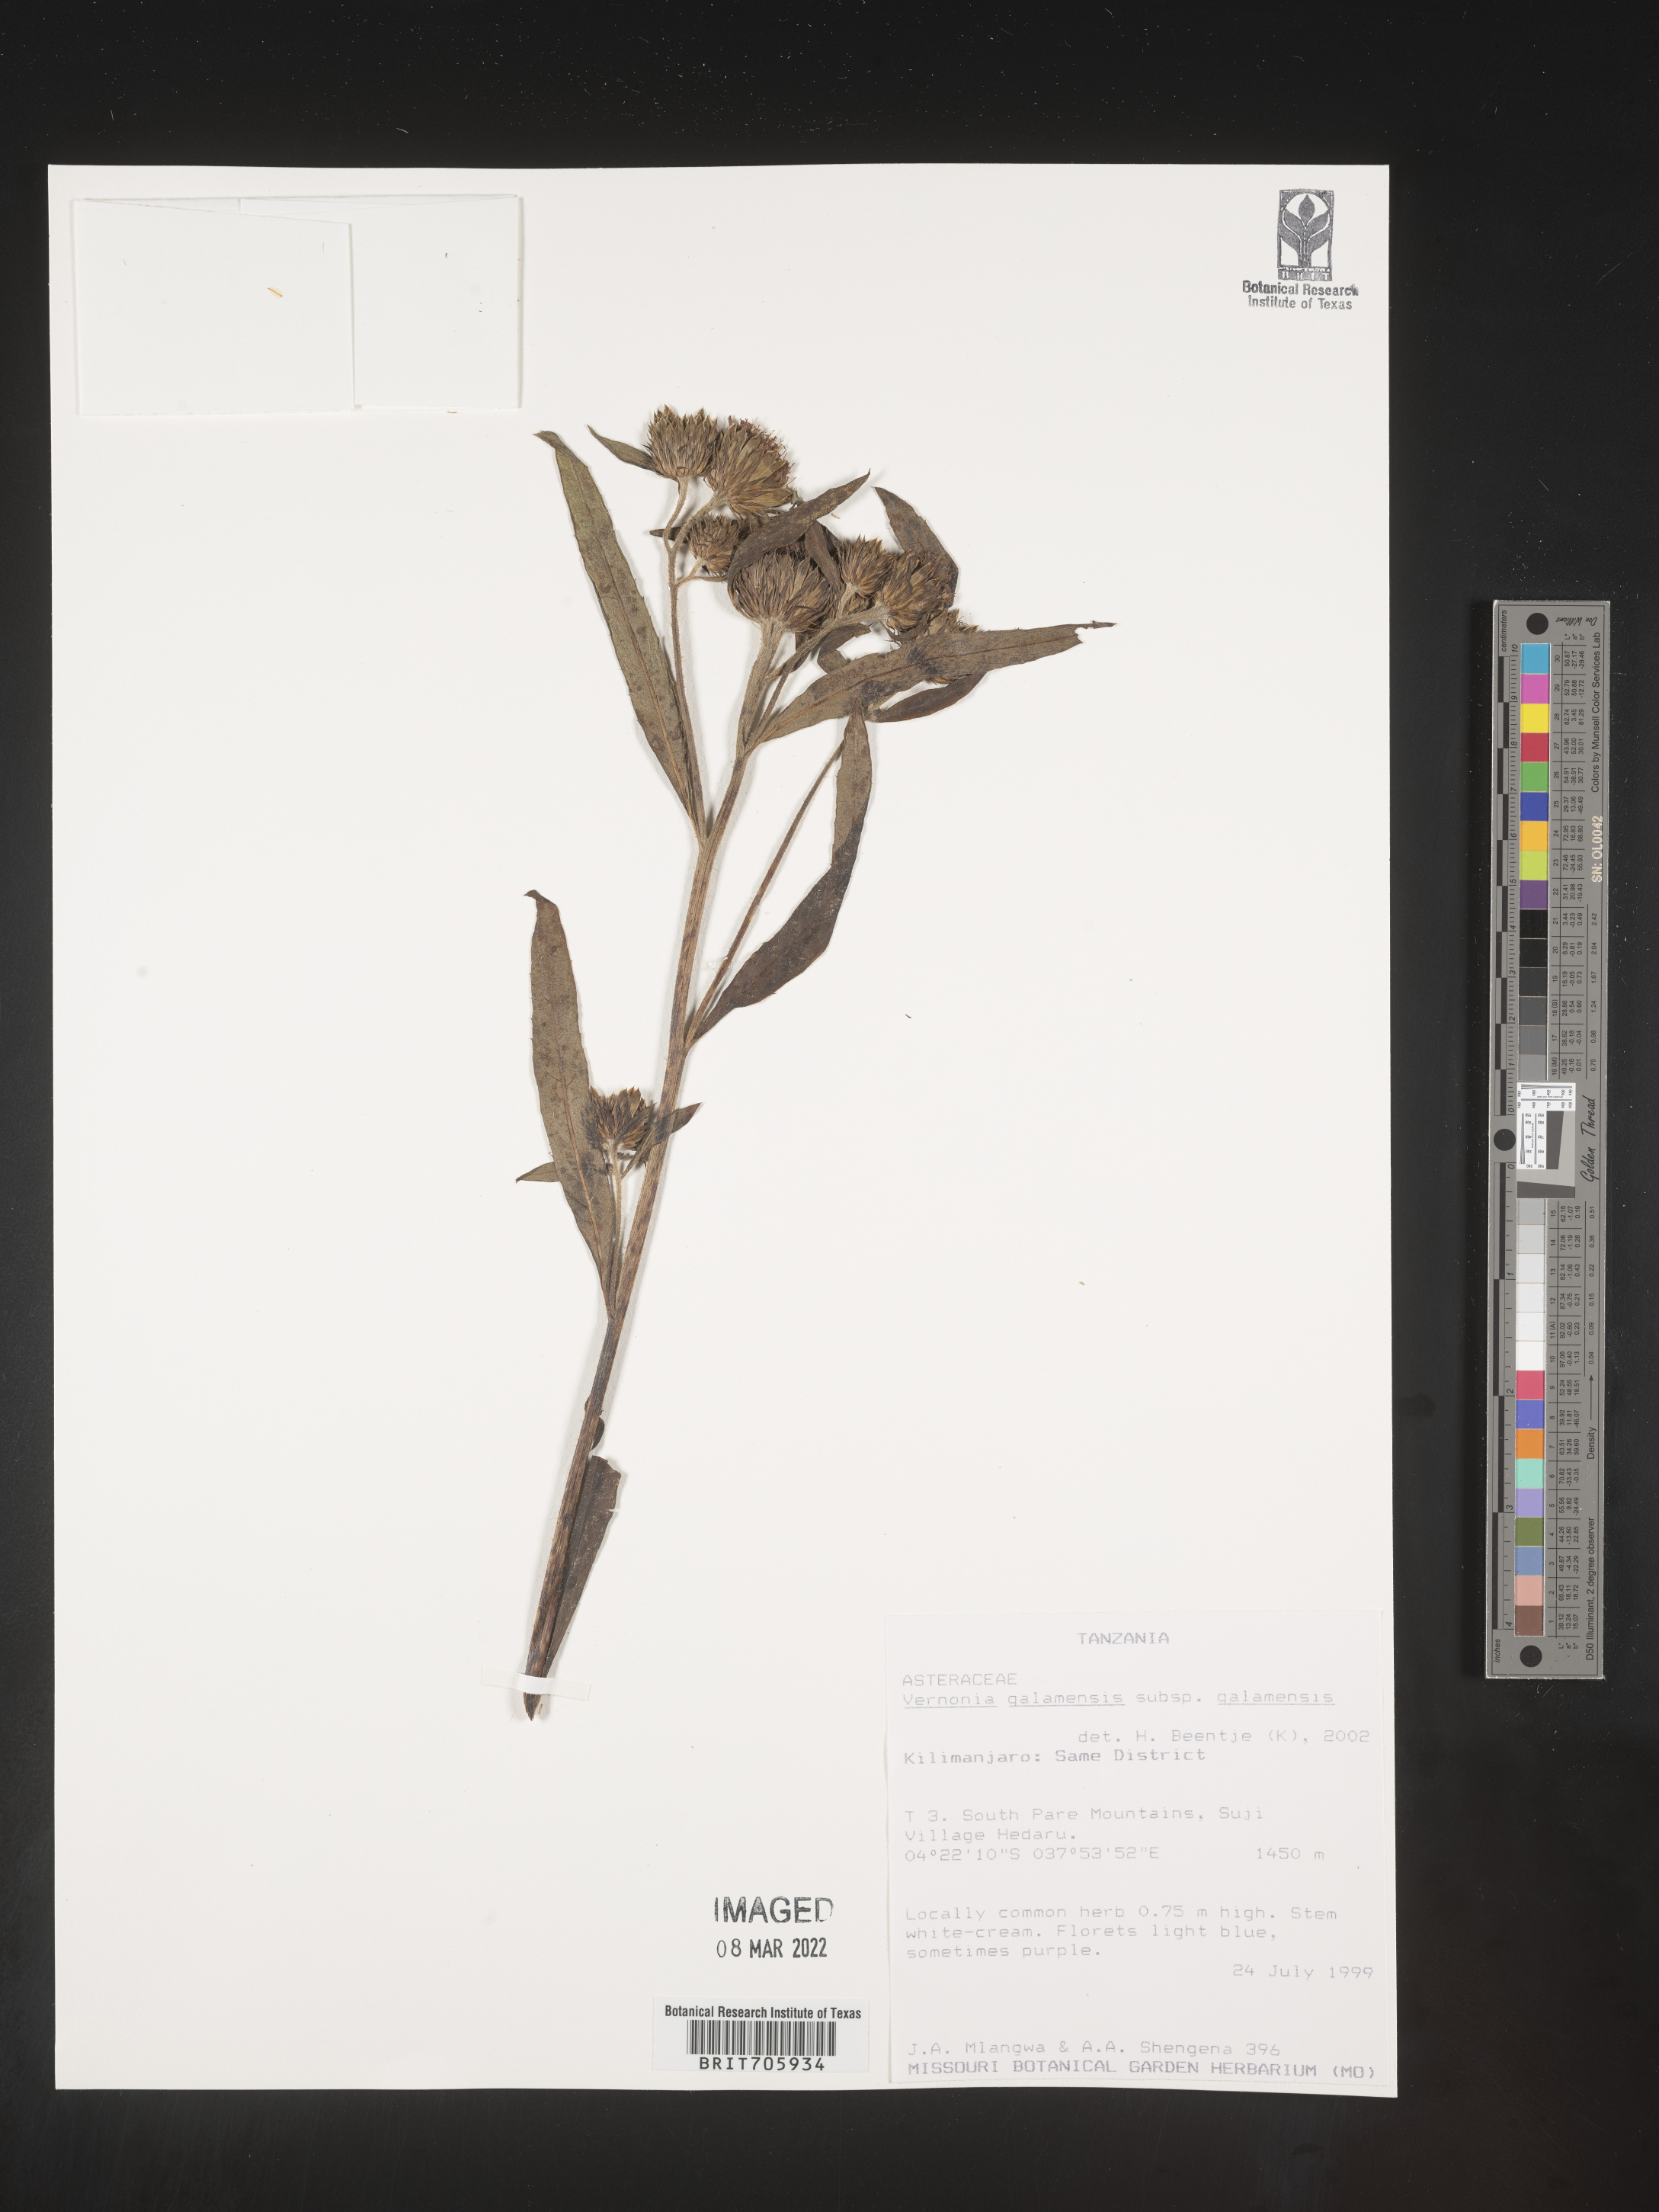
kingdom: Plantae
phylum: Tracheophyta
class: Magnoliopsida
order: Asterales
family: Asteraceae
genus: Vernonia
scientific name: Vernonia
